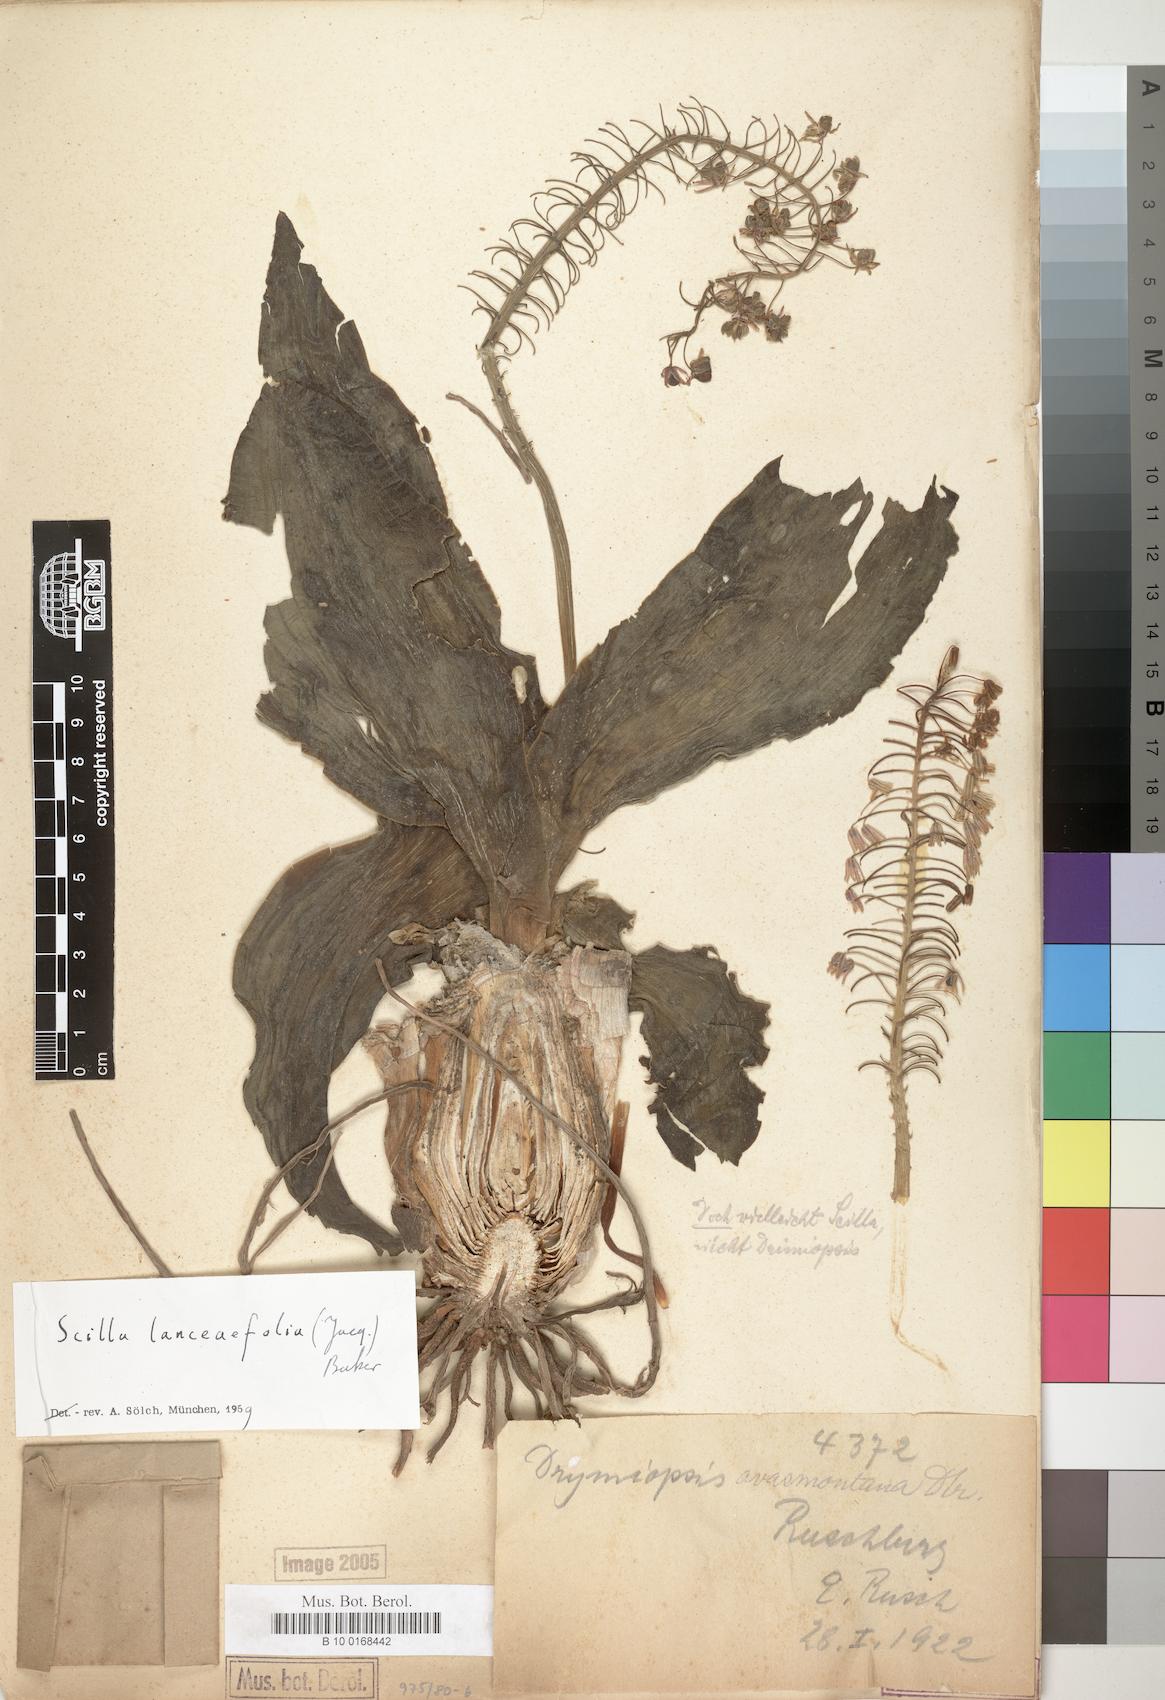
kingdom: Plantae
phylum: Tracheophyta
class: Liliopsida
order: Asparagales
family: Asparagaceae
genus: Scilla
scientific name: Scilla lanceaefolia
